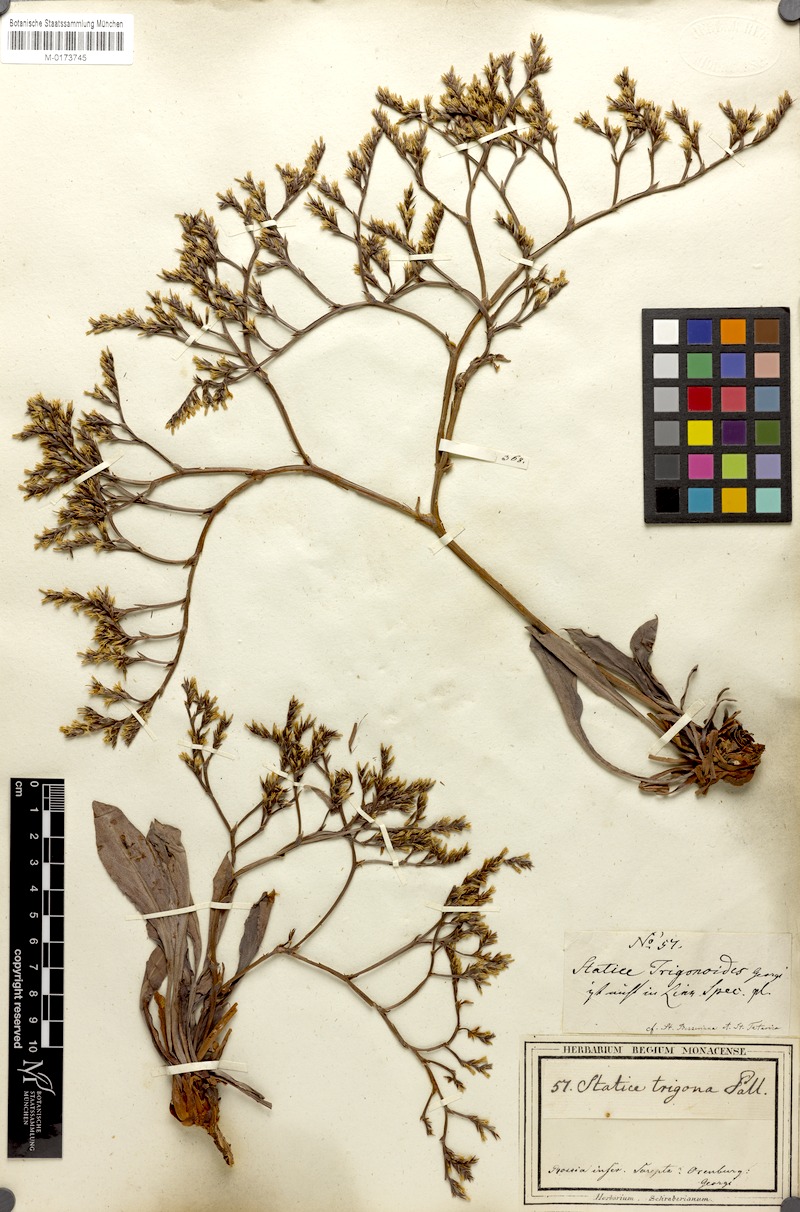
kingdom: Plantae
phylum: Tracheophyta
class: Magnoliopsida
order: Caryophyllales
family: Plumbaginaceae
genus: Goniolimon
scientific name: Goniolimon tataricum
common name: Statice
